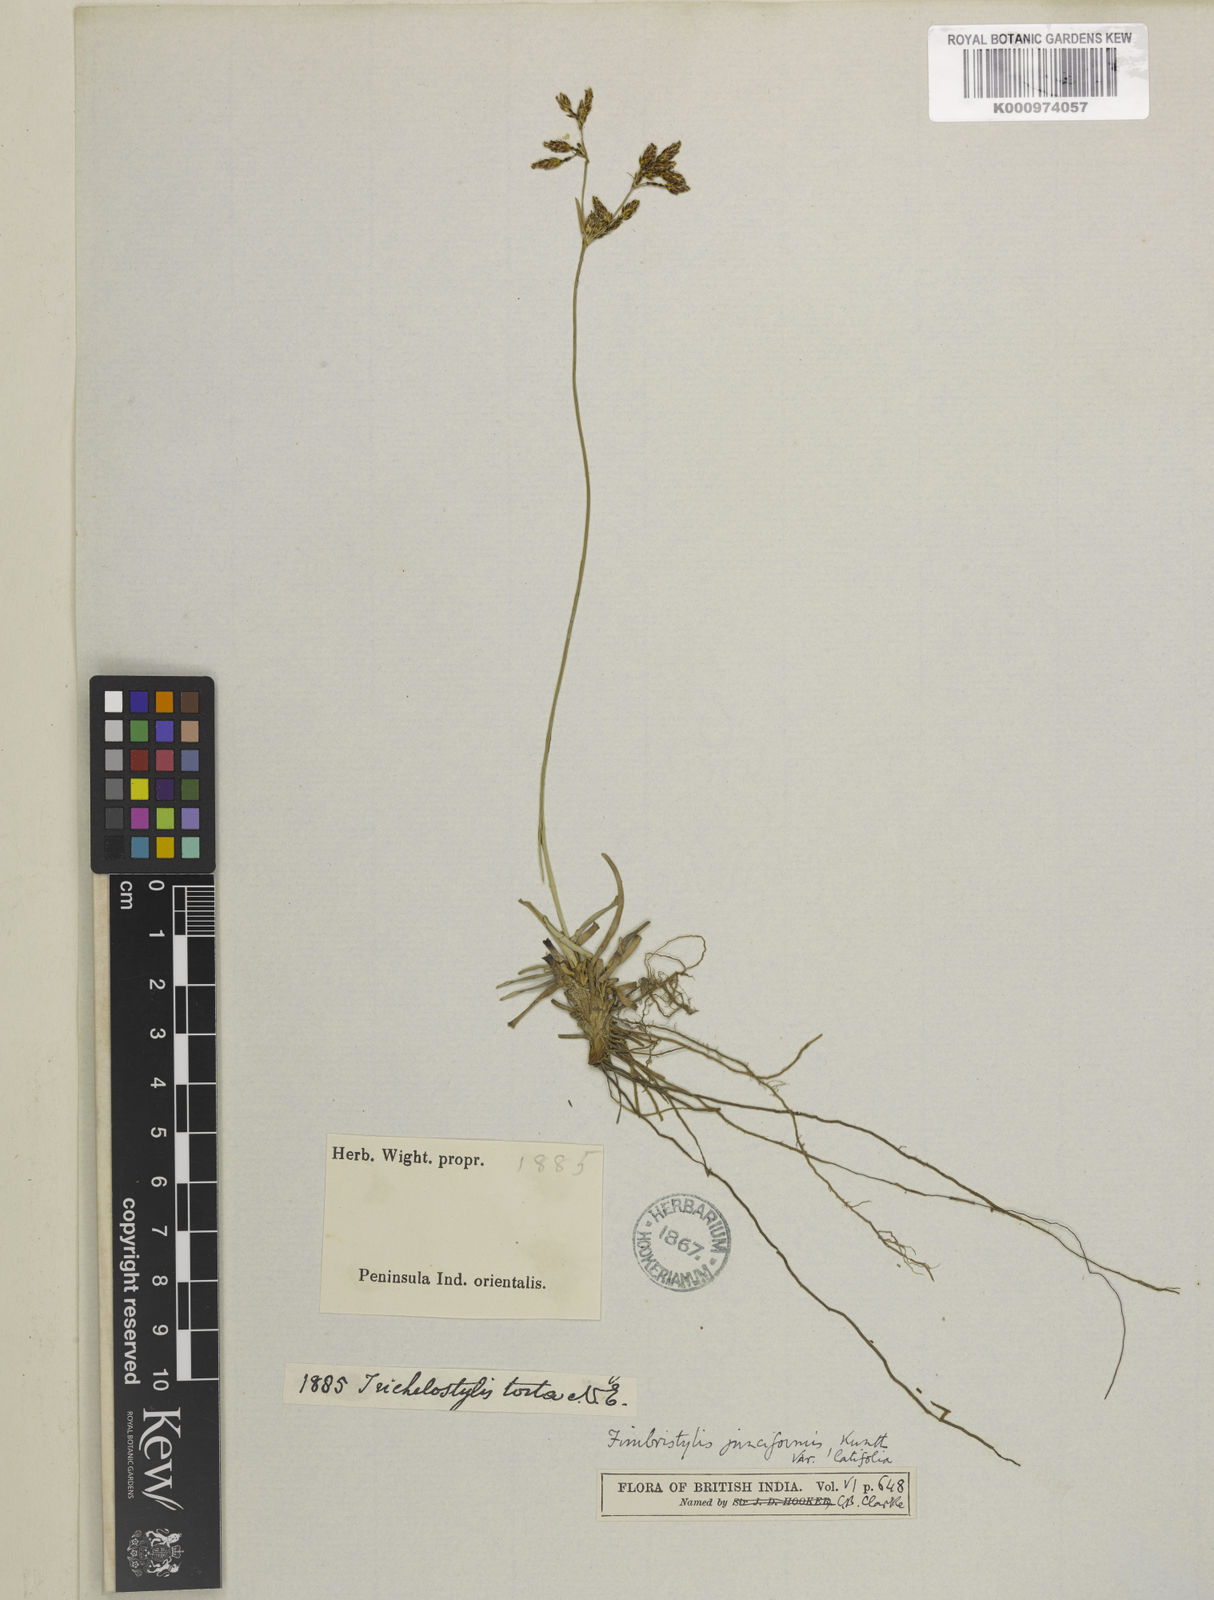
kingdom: Plantae
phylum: Tracheophyta
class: Liliopsida
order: Poales
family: Cyperaceae
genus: Fimbristylis
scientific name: Fimbristylis falcata
